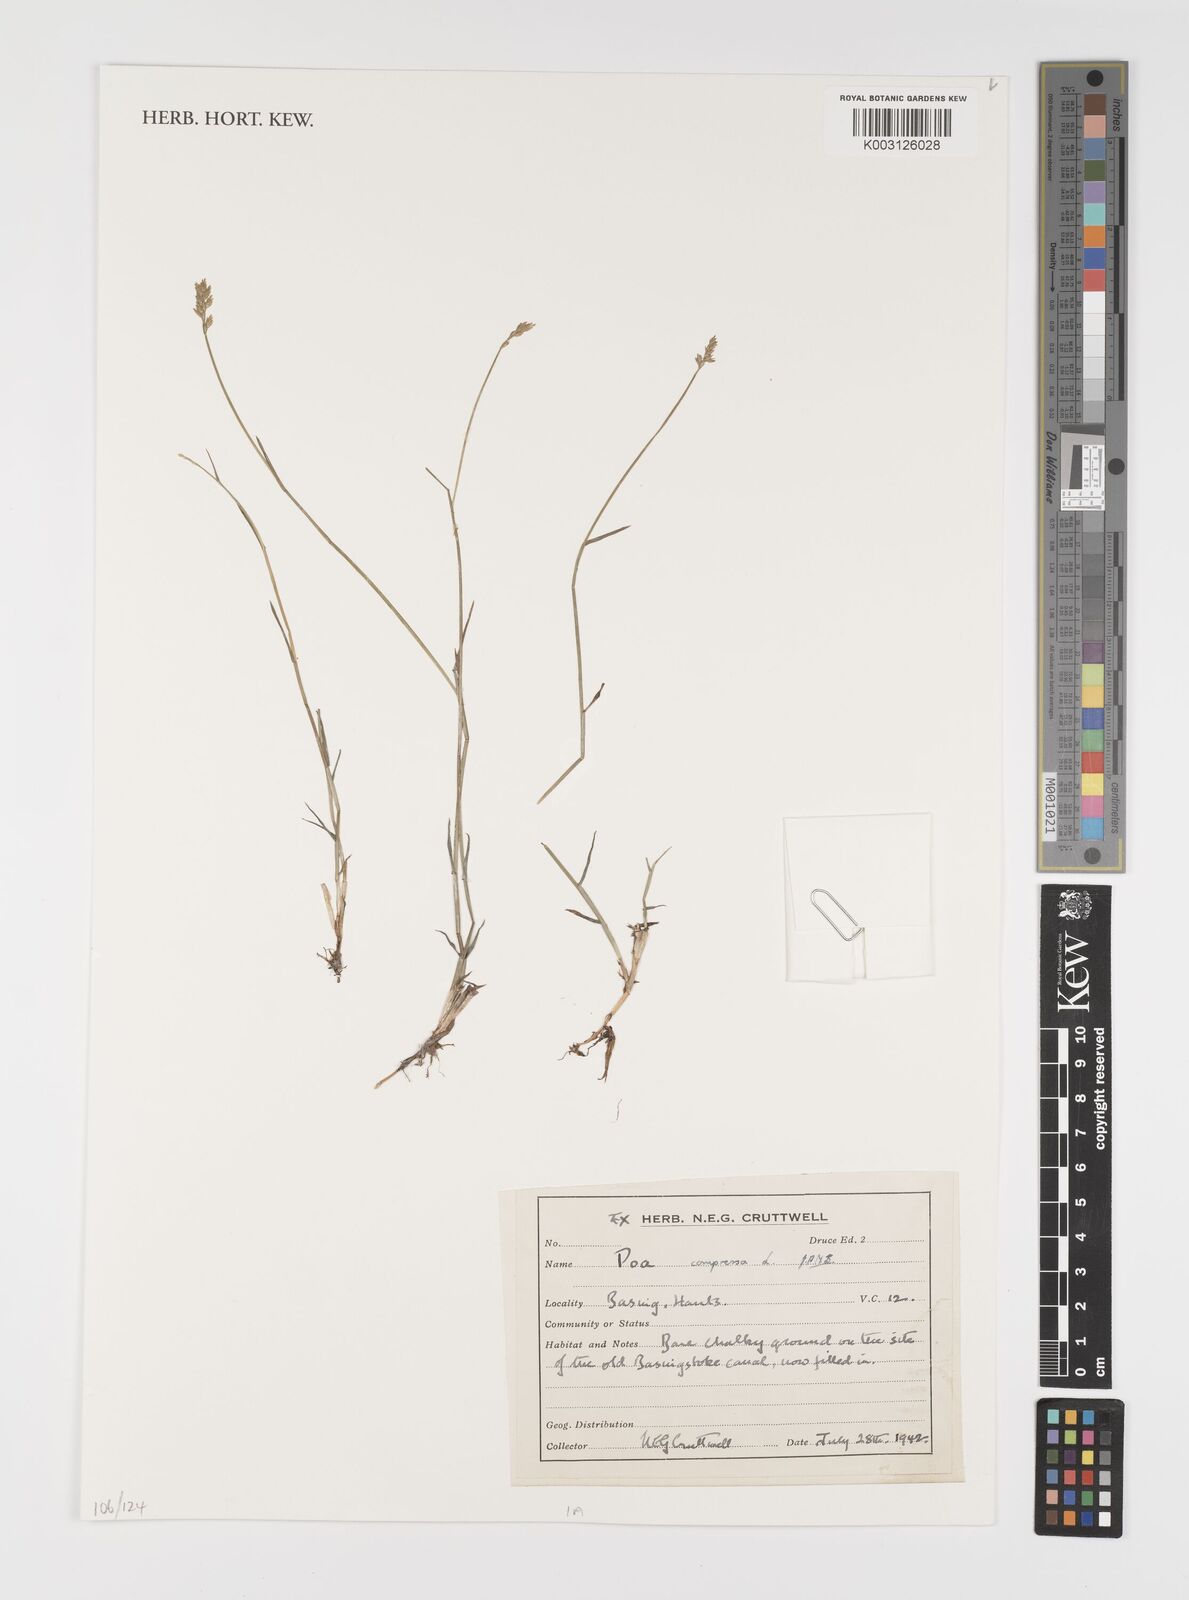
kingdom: Plantae
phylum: Tracheophyta
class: Liliopsida
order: Poales
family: Poaceae
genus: Poa
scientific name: Poa compressa
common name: Canada bluegrass
